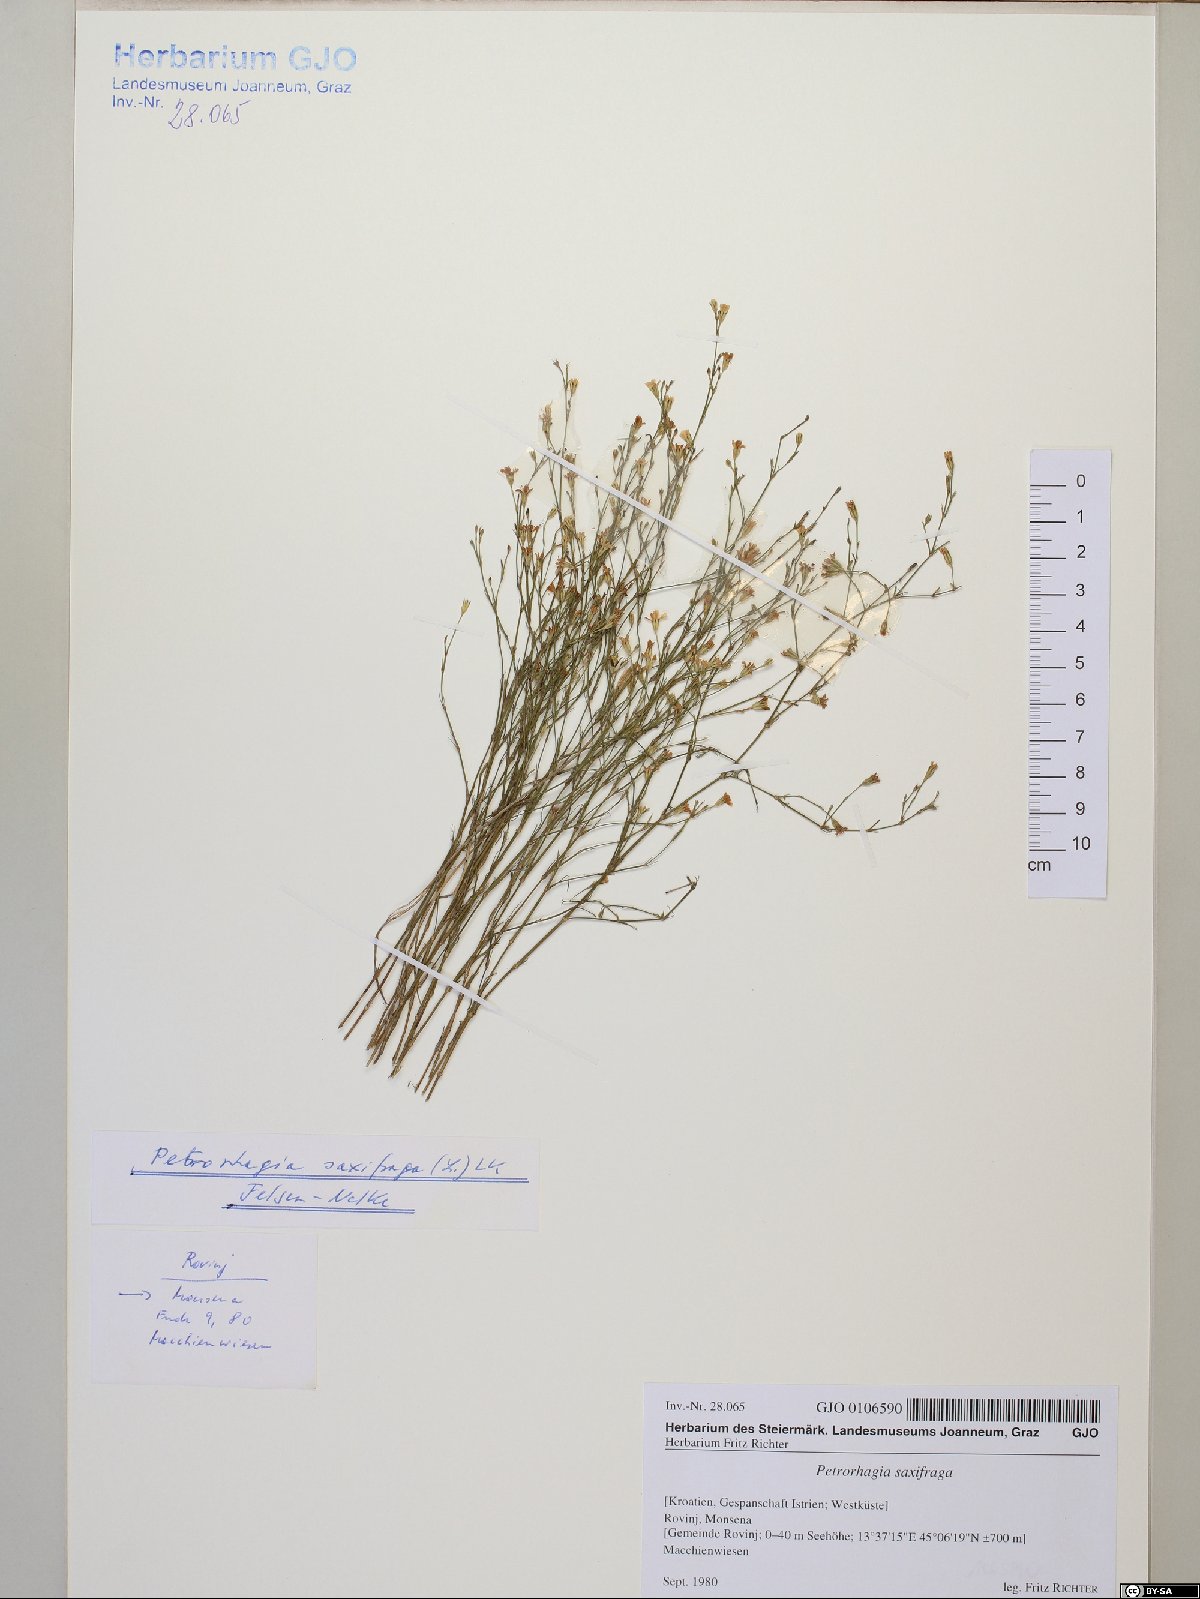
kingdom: Plantae
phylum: Tracheophyta
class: Magnoliopsida
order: Caryophyllales
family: Caryophyllaceae
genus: Petrorhagia
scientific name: Petrorhagia saxifraga
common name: Tunicflower
